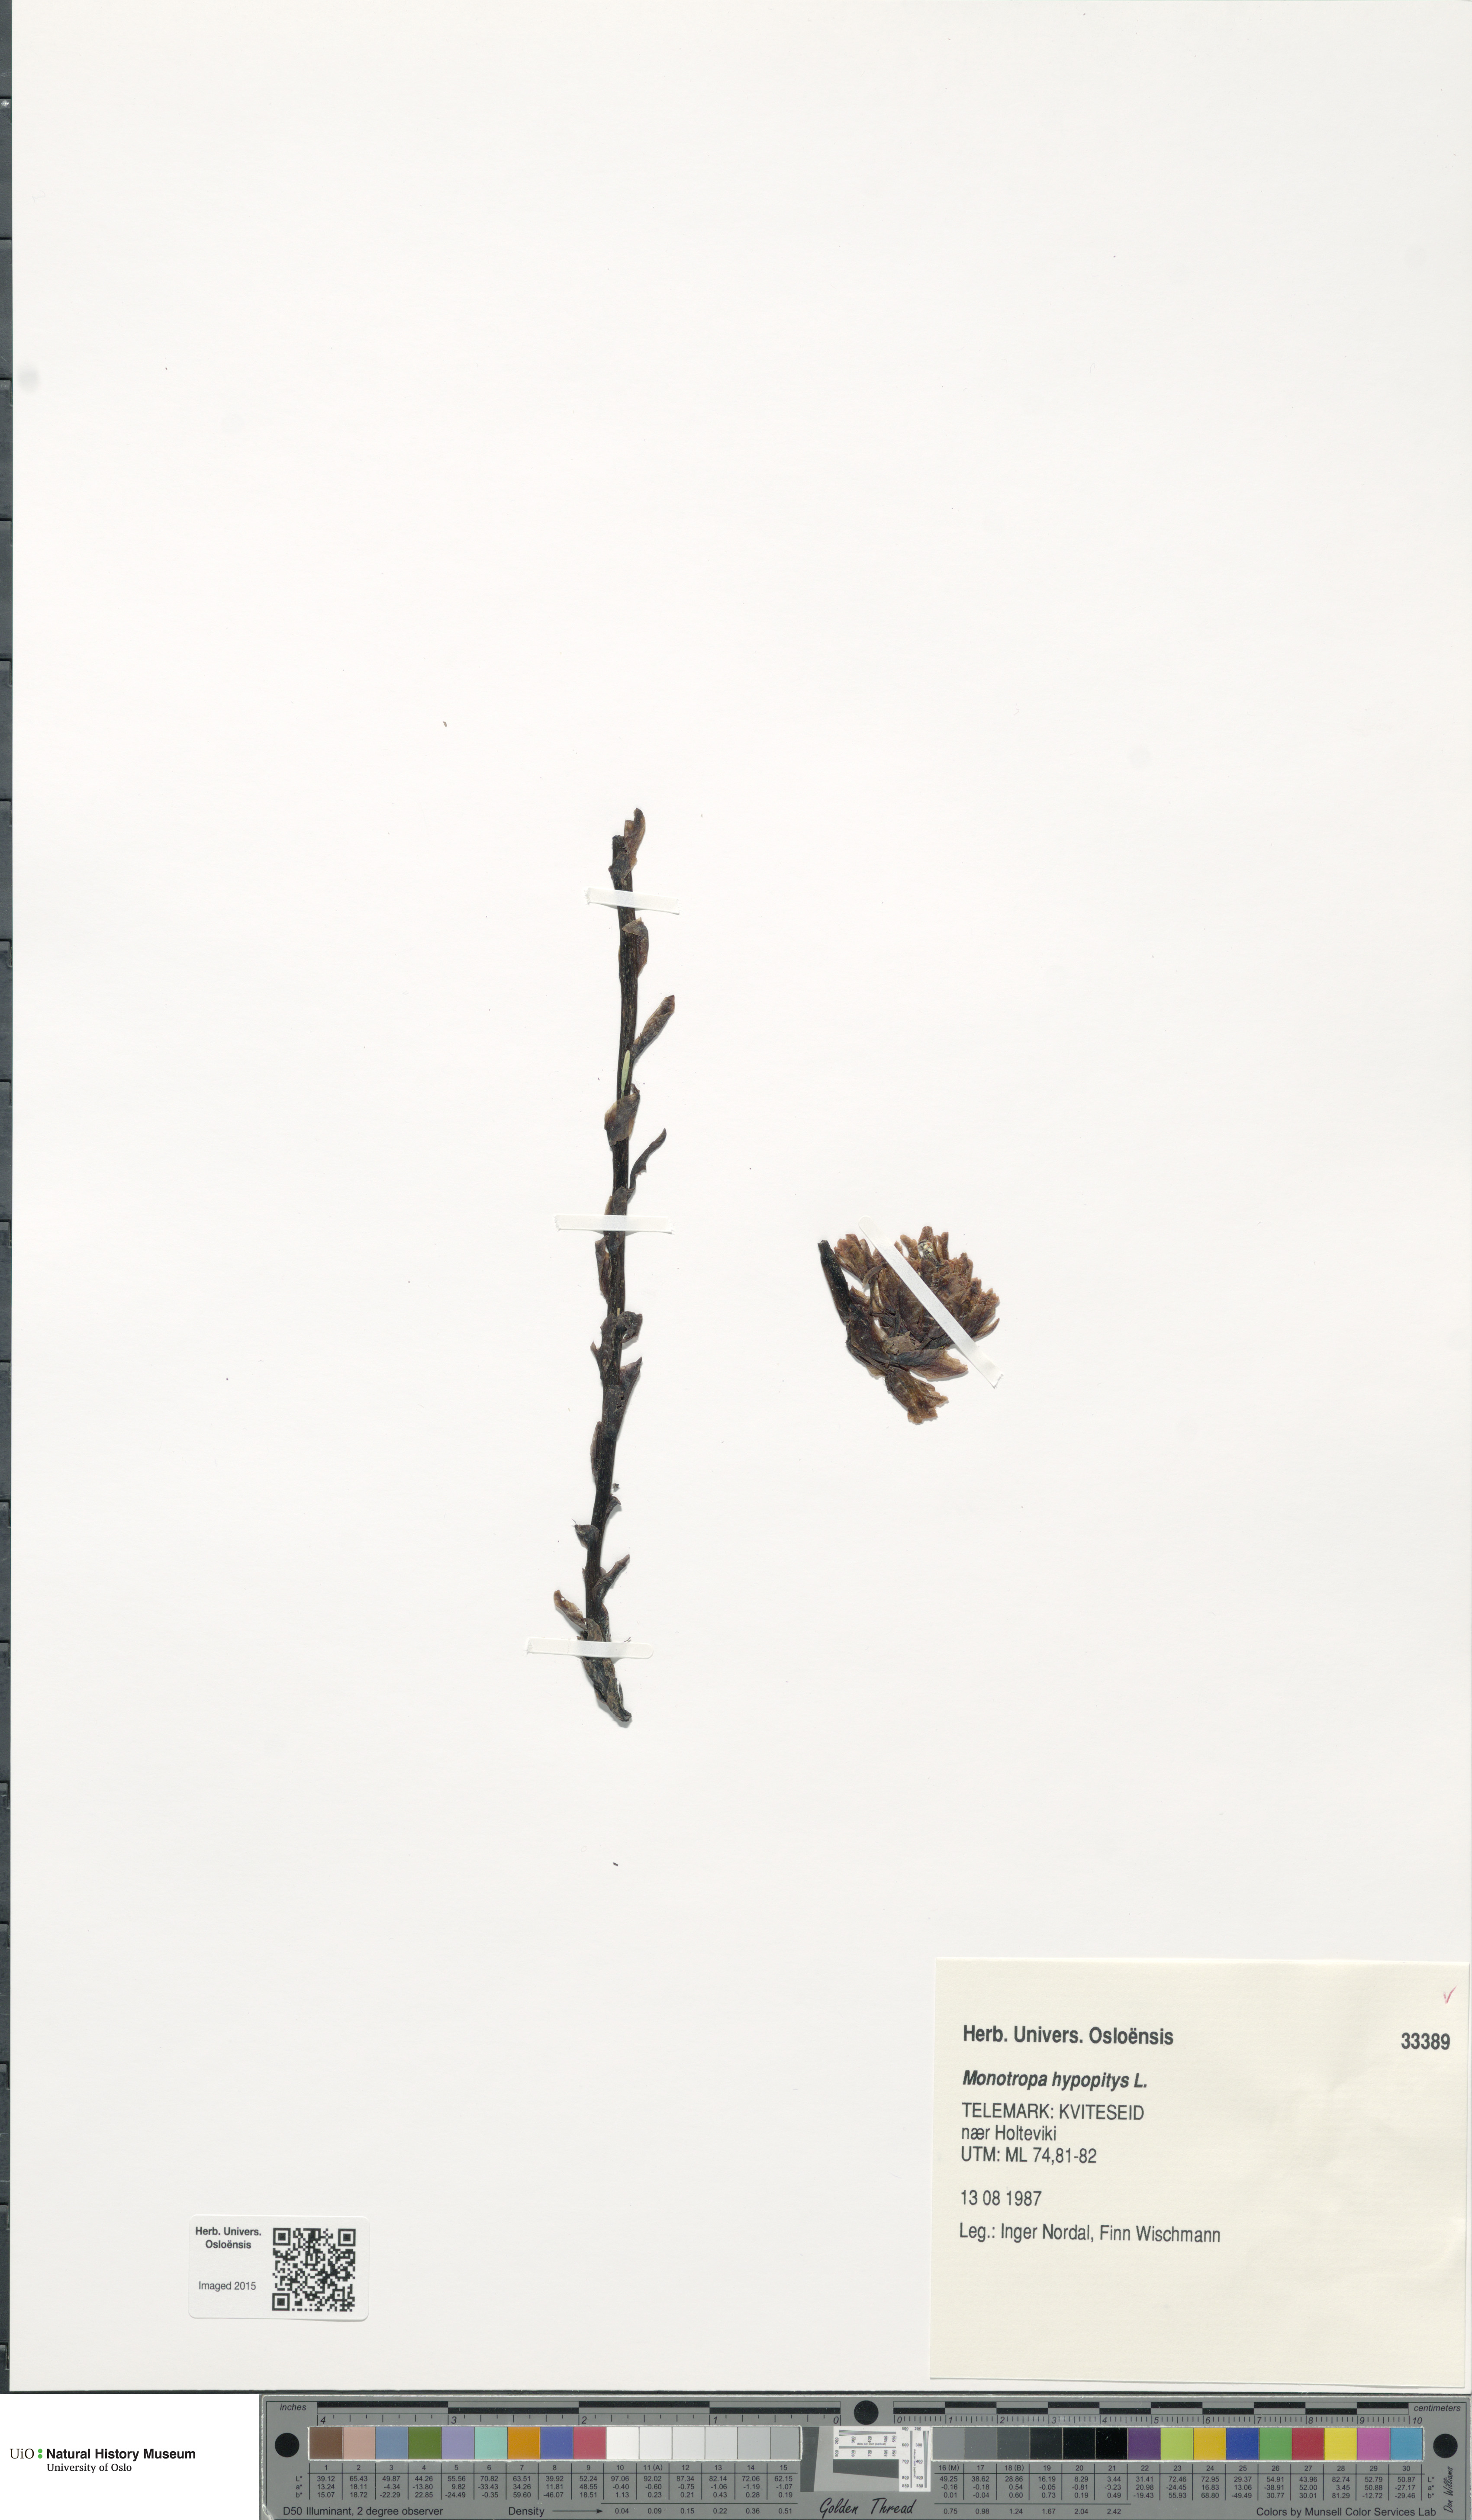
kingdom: Plantae
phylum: Tracheophyta
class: Magnoliopsida
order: Ericales
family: Ericaceae
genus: Hypopitys
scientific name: Hypopitys monotropa
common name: Yellow bird's-nest
